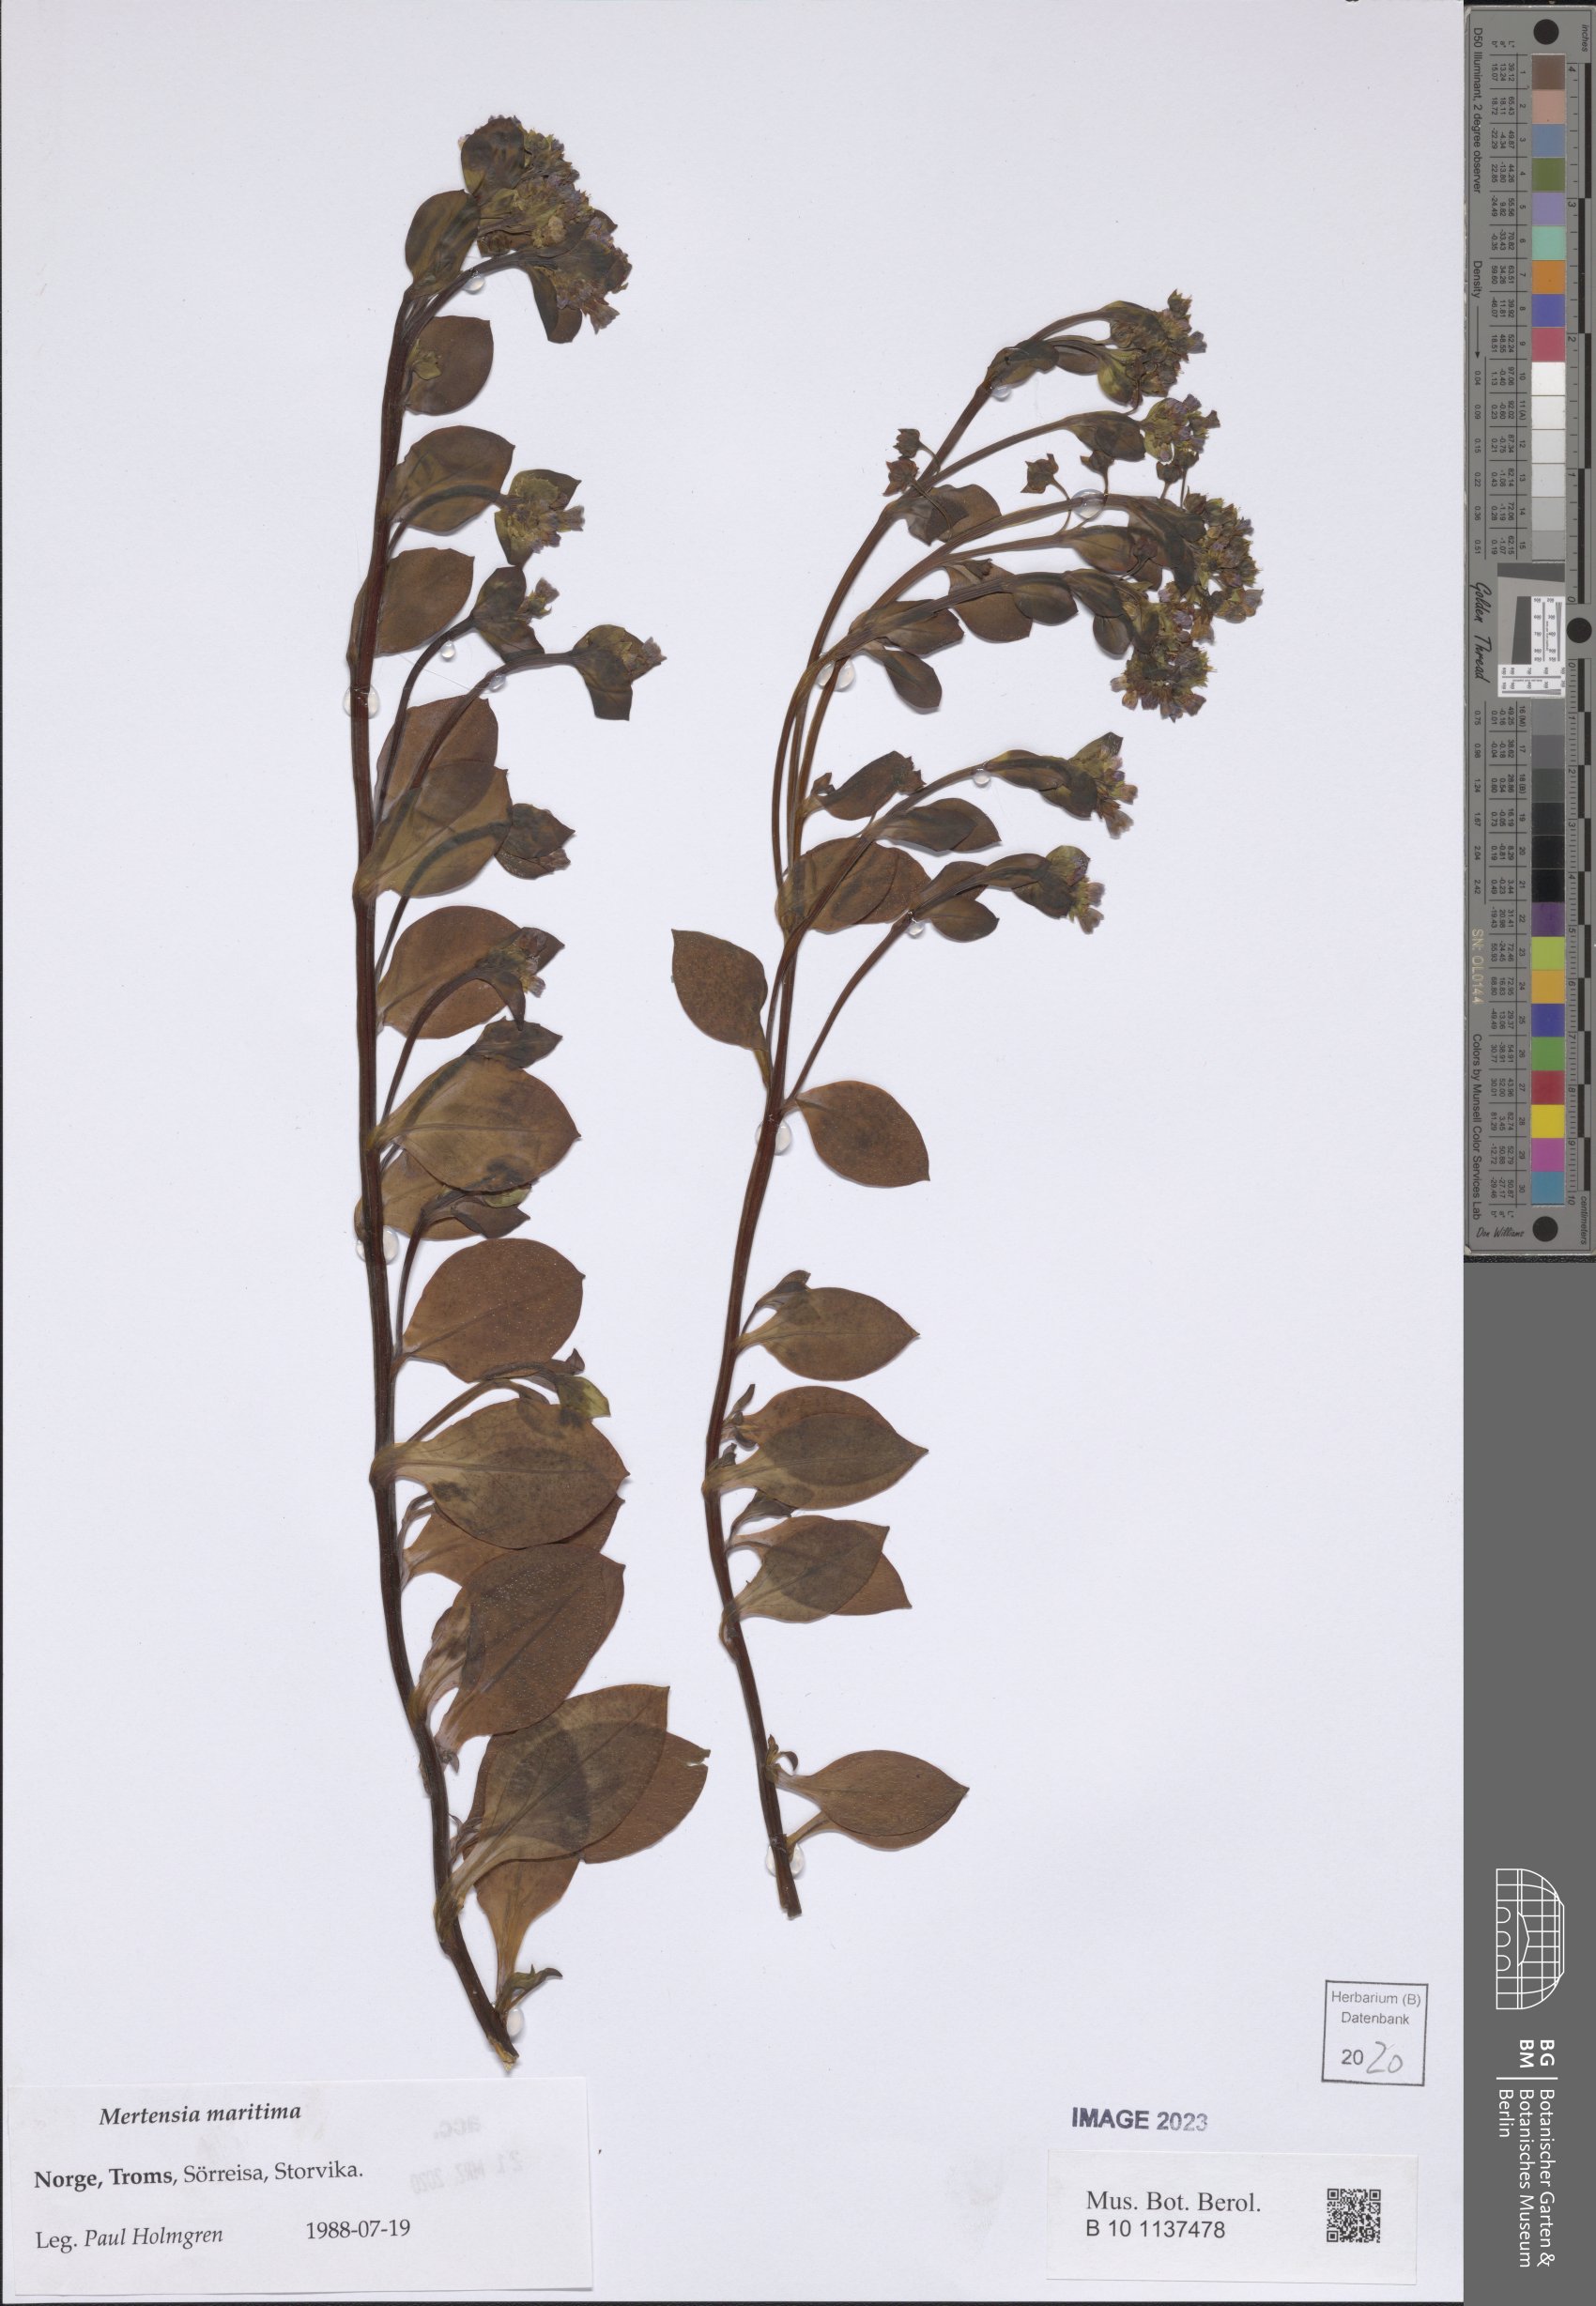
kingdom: Plantae
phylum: Tracheophyta
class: Magnoliopsida
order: Boraginales
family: Boraginaceae
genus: Mertensia
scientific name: Mertensia maritima
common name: Oysterplant
